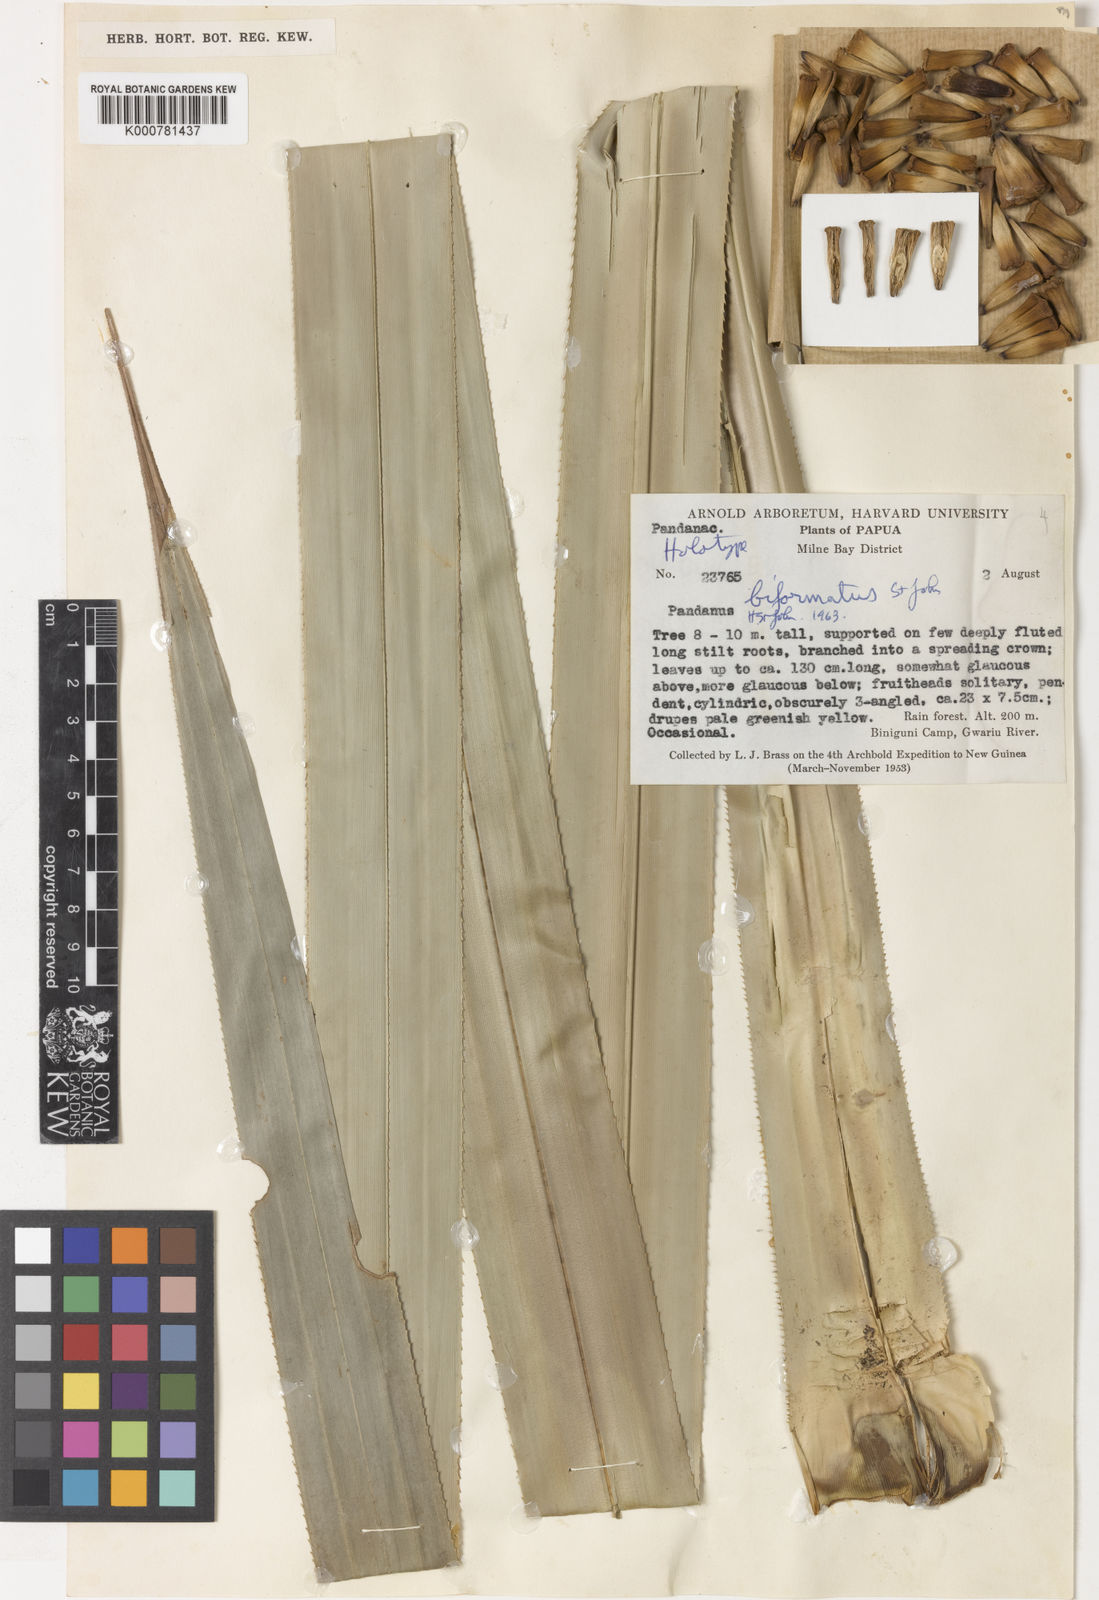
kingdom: Plantae
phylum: Tracheophyta
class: Liliopsida
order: Pandanales
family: Pandanaceae
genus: Pandanus
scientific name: Pandanus krauelianus
